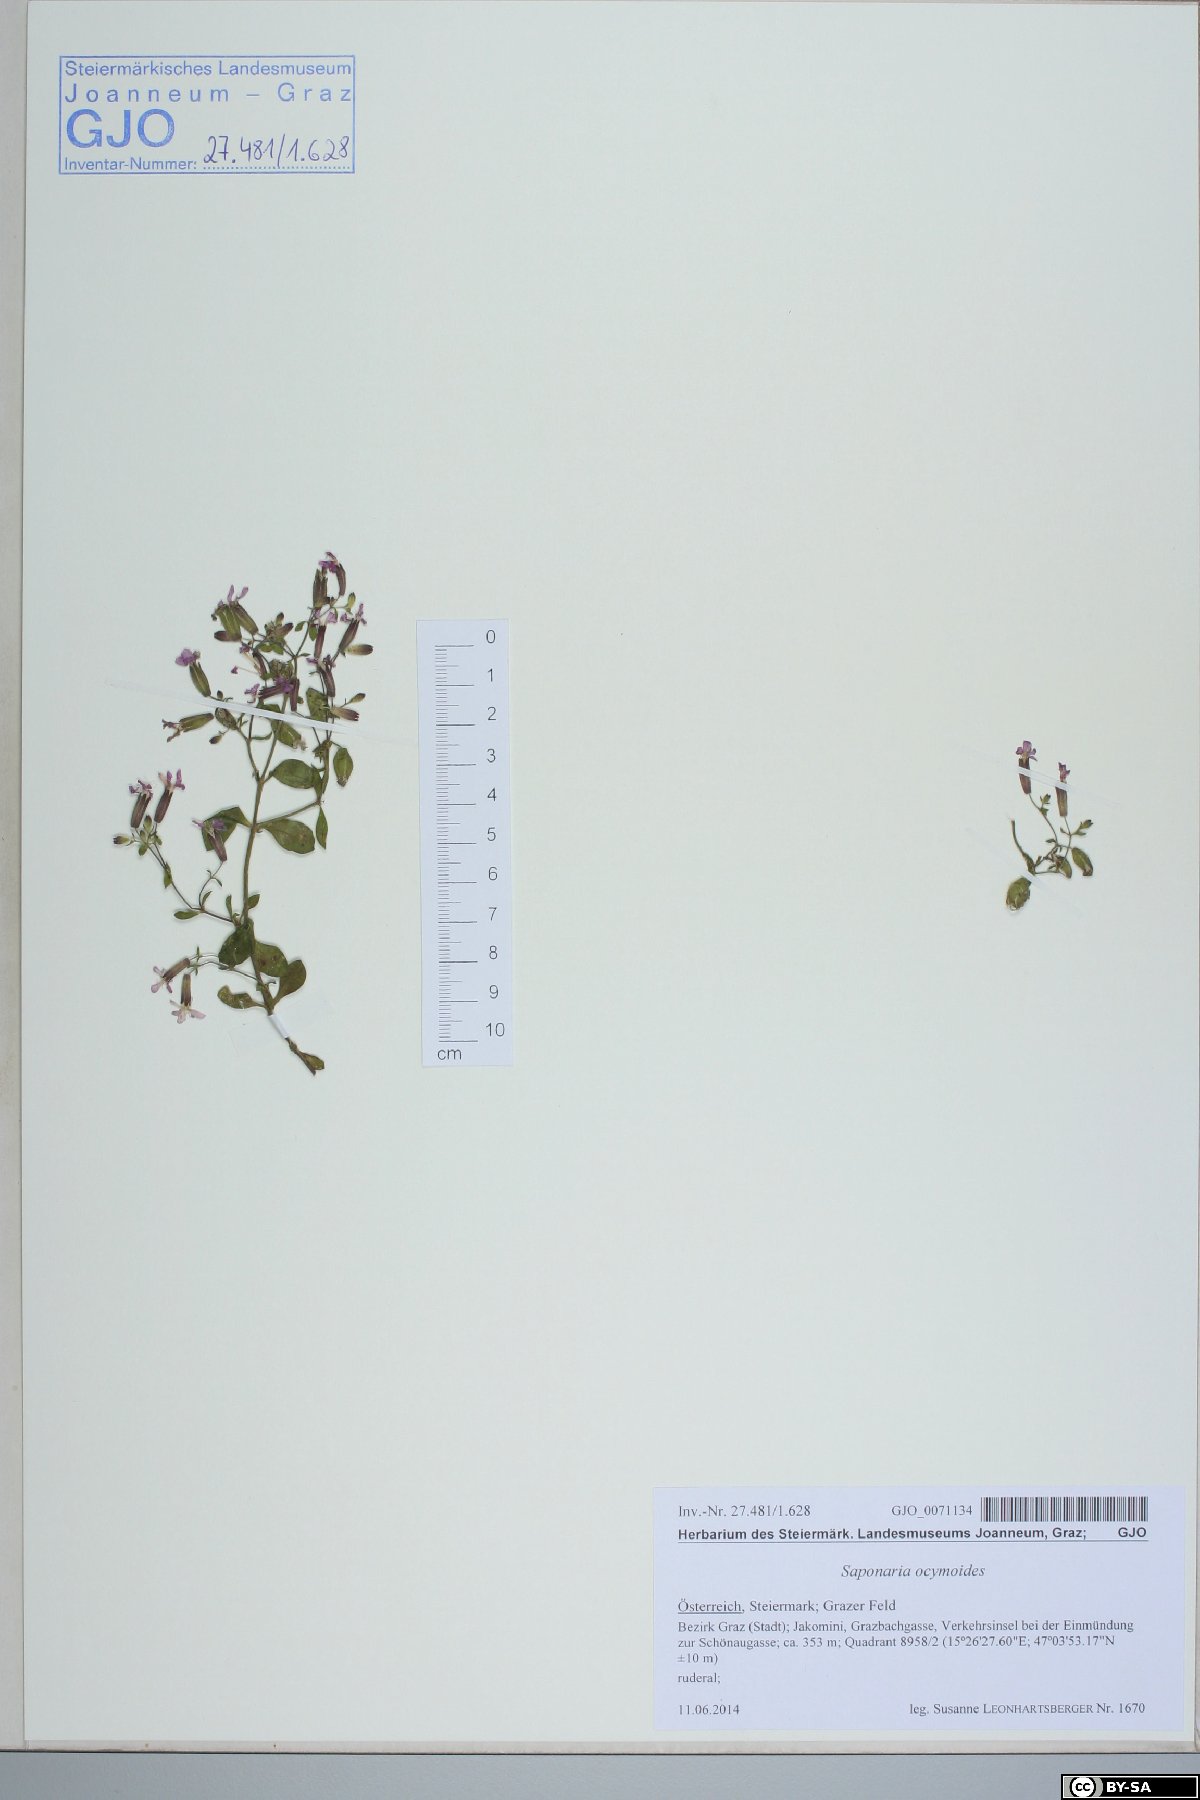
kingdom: Plantae
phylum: Tracheophyta
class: Magnoliopsida
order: Caryophyllales
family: Caryophyllaceae
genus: Saponaria
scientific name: Saponaria ocymoides
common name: Rock soapwort
